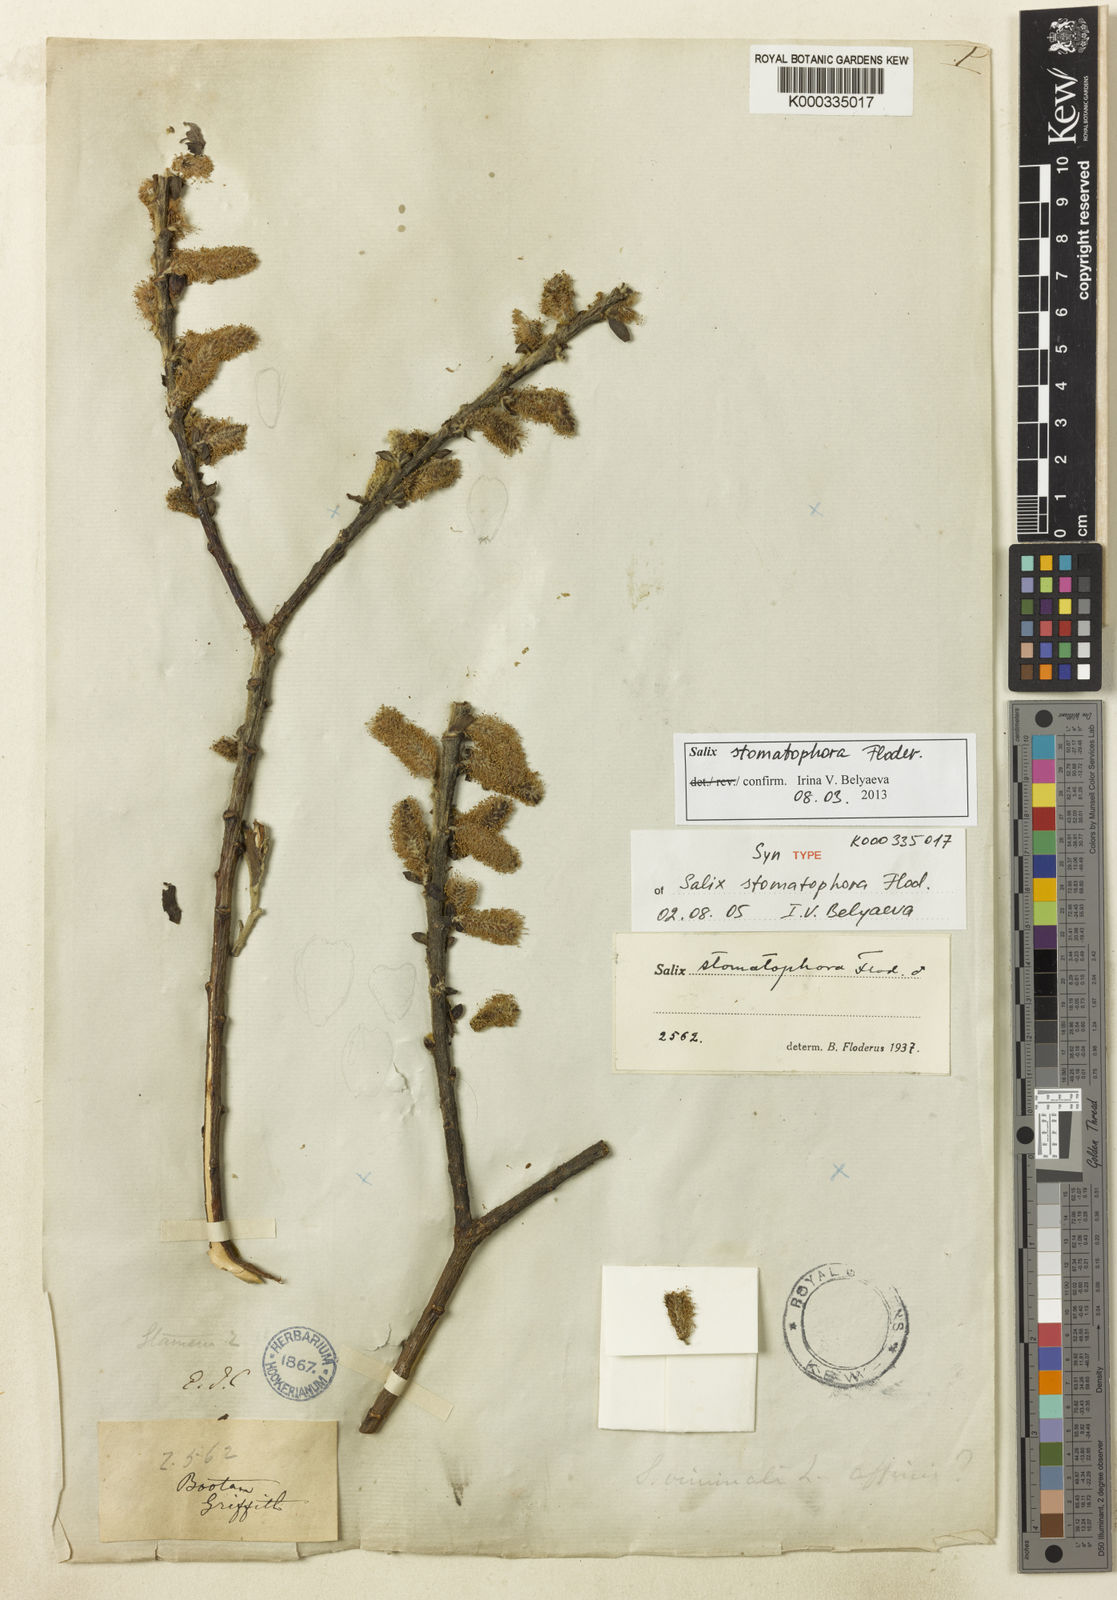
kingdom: Plantae
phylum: Tracheophyta
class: Magnoliopsida
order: Malpighiales
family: Salicaceae
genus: Salix
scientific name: Salix stomatophora
